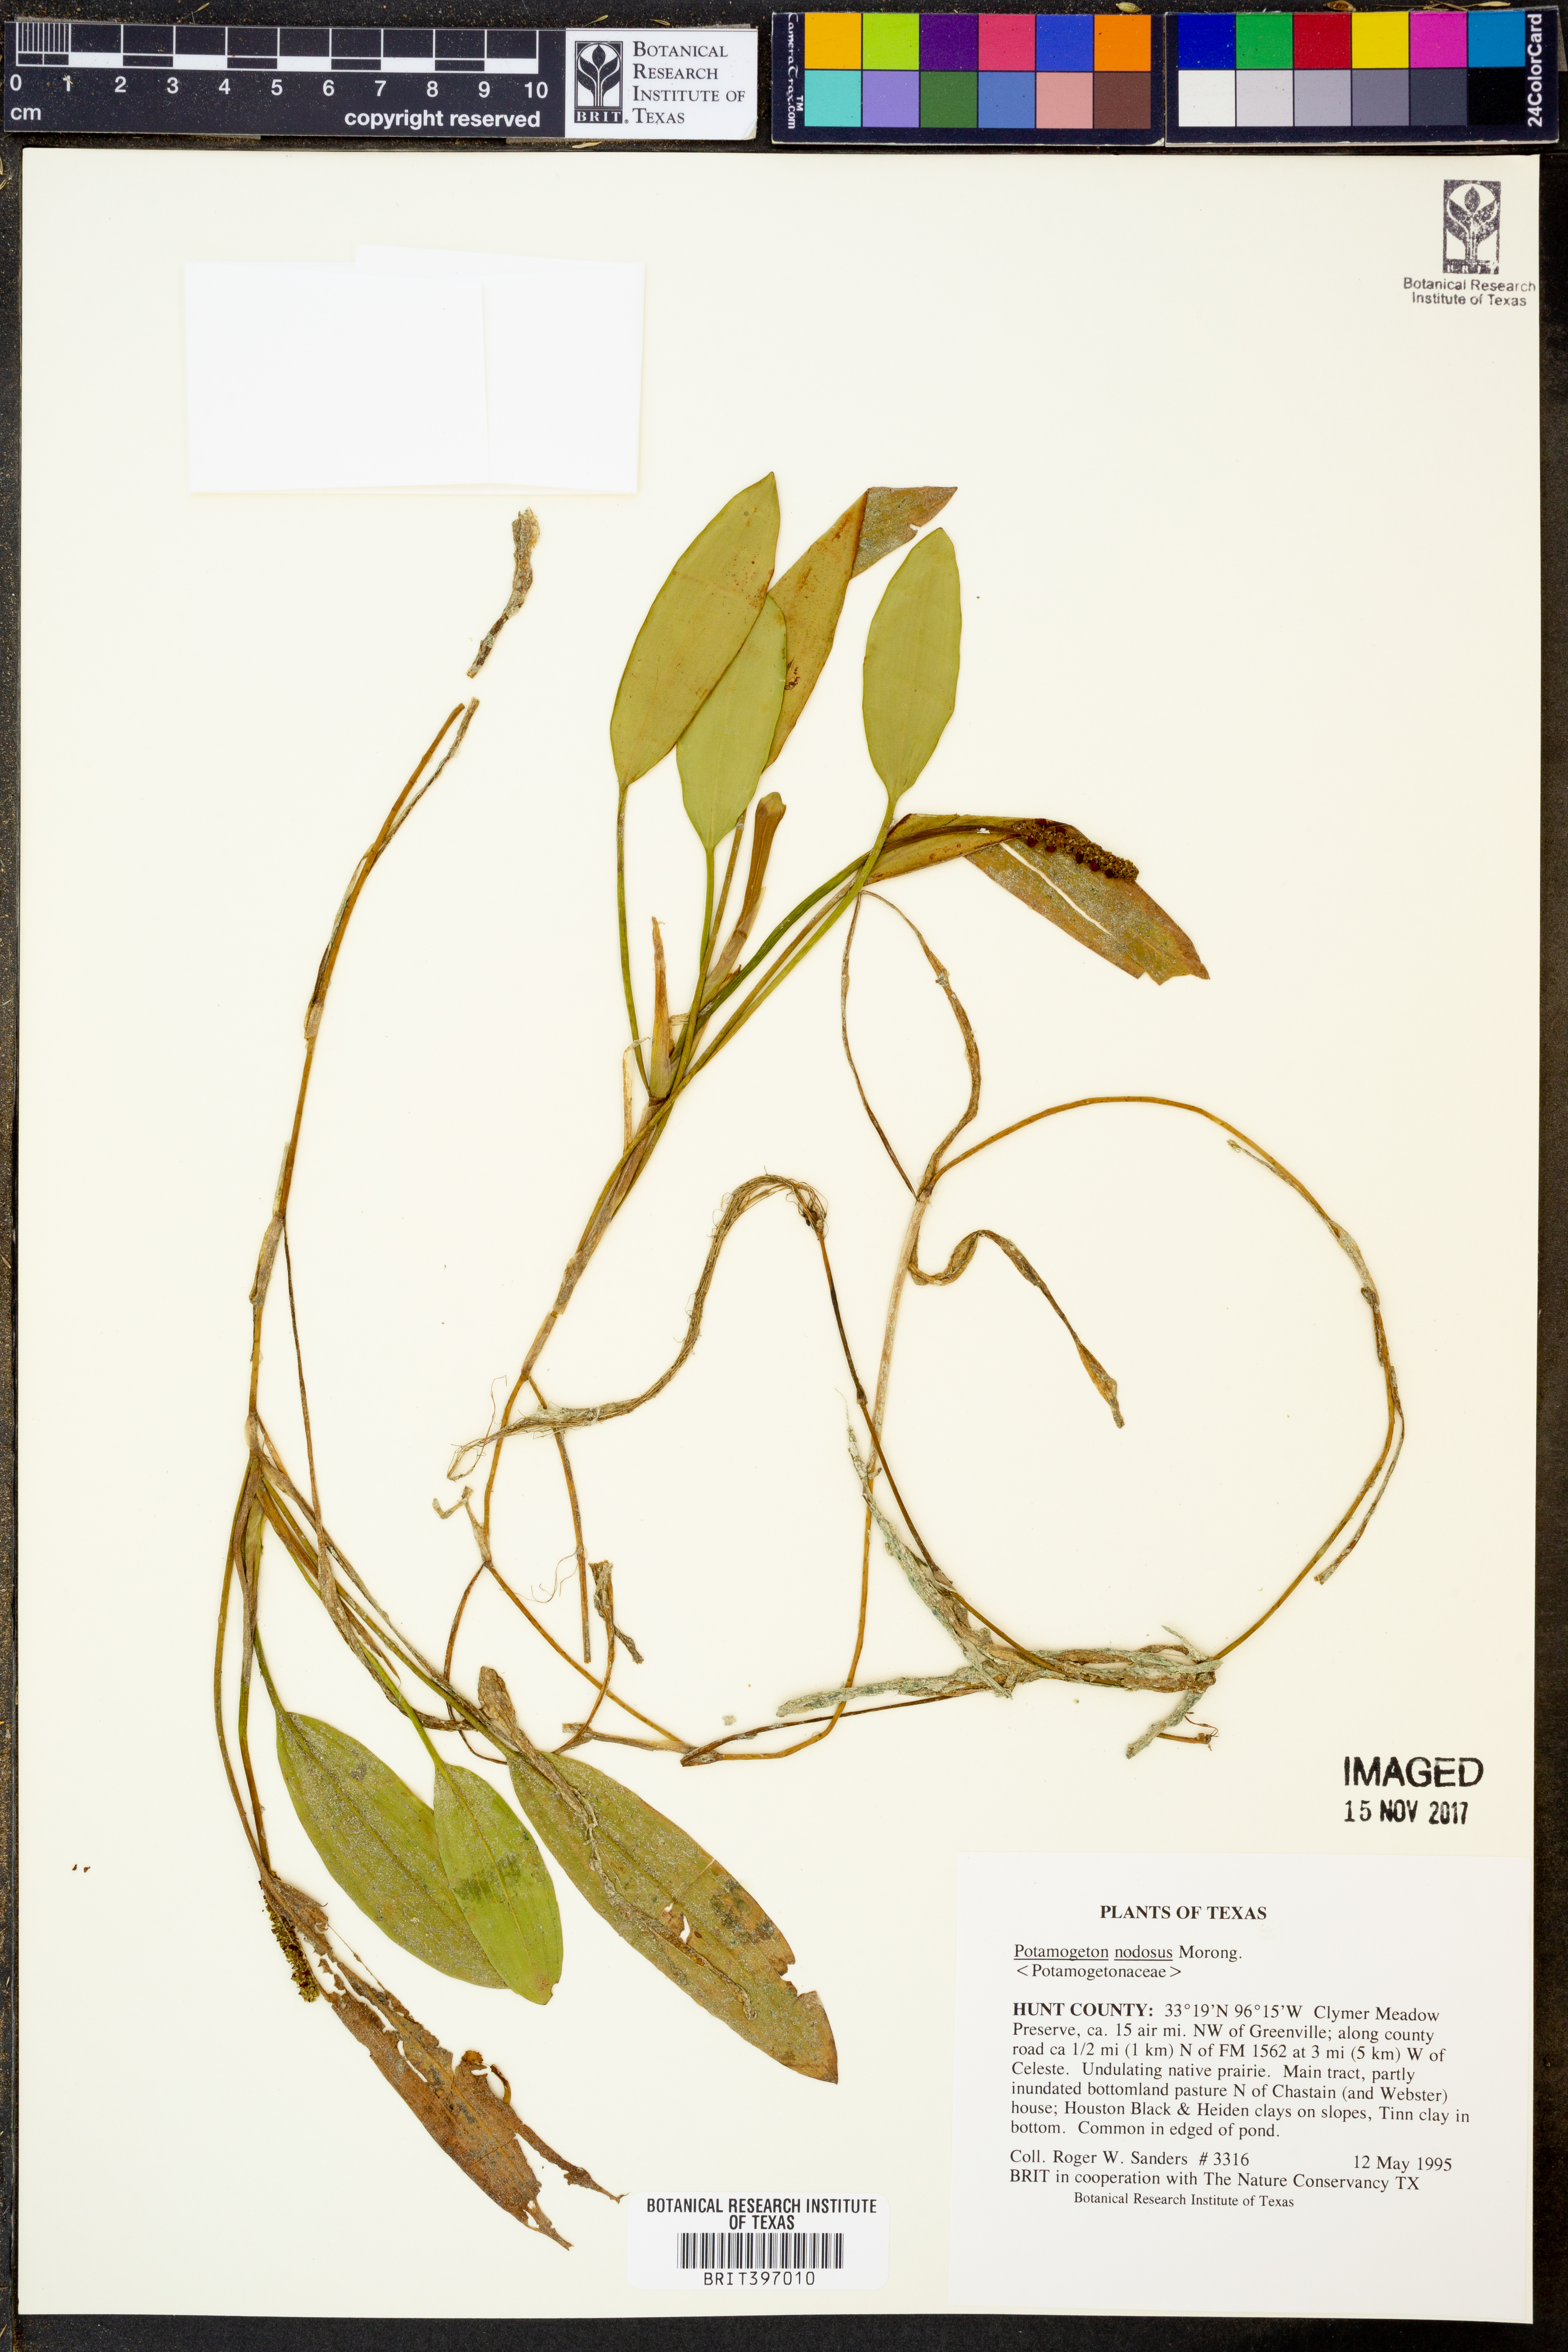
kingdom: Plantae
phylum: Tracheophyta
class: Liliopsida
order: Alismatales
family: Potamogetonaceae
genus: Potamogeton
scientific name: Potamogeton nodosus
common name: Loddon pondweed
